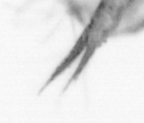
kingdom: Animalia
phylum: Arthropoda
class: Copepoda
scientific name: Copepoda
